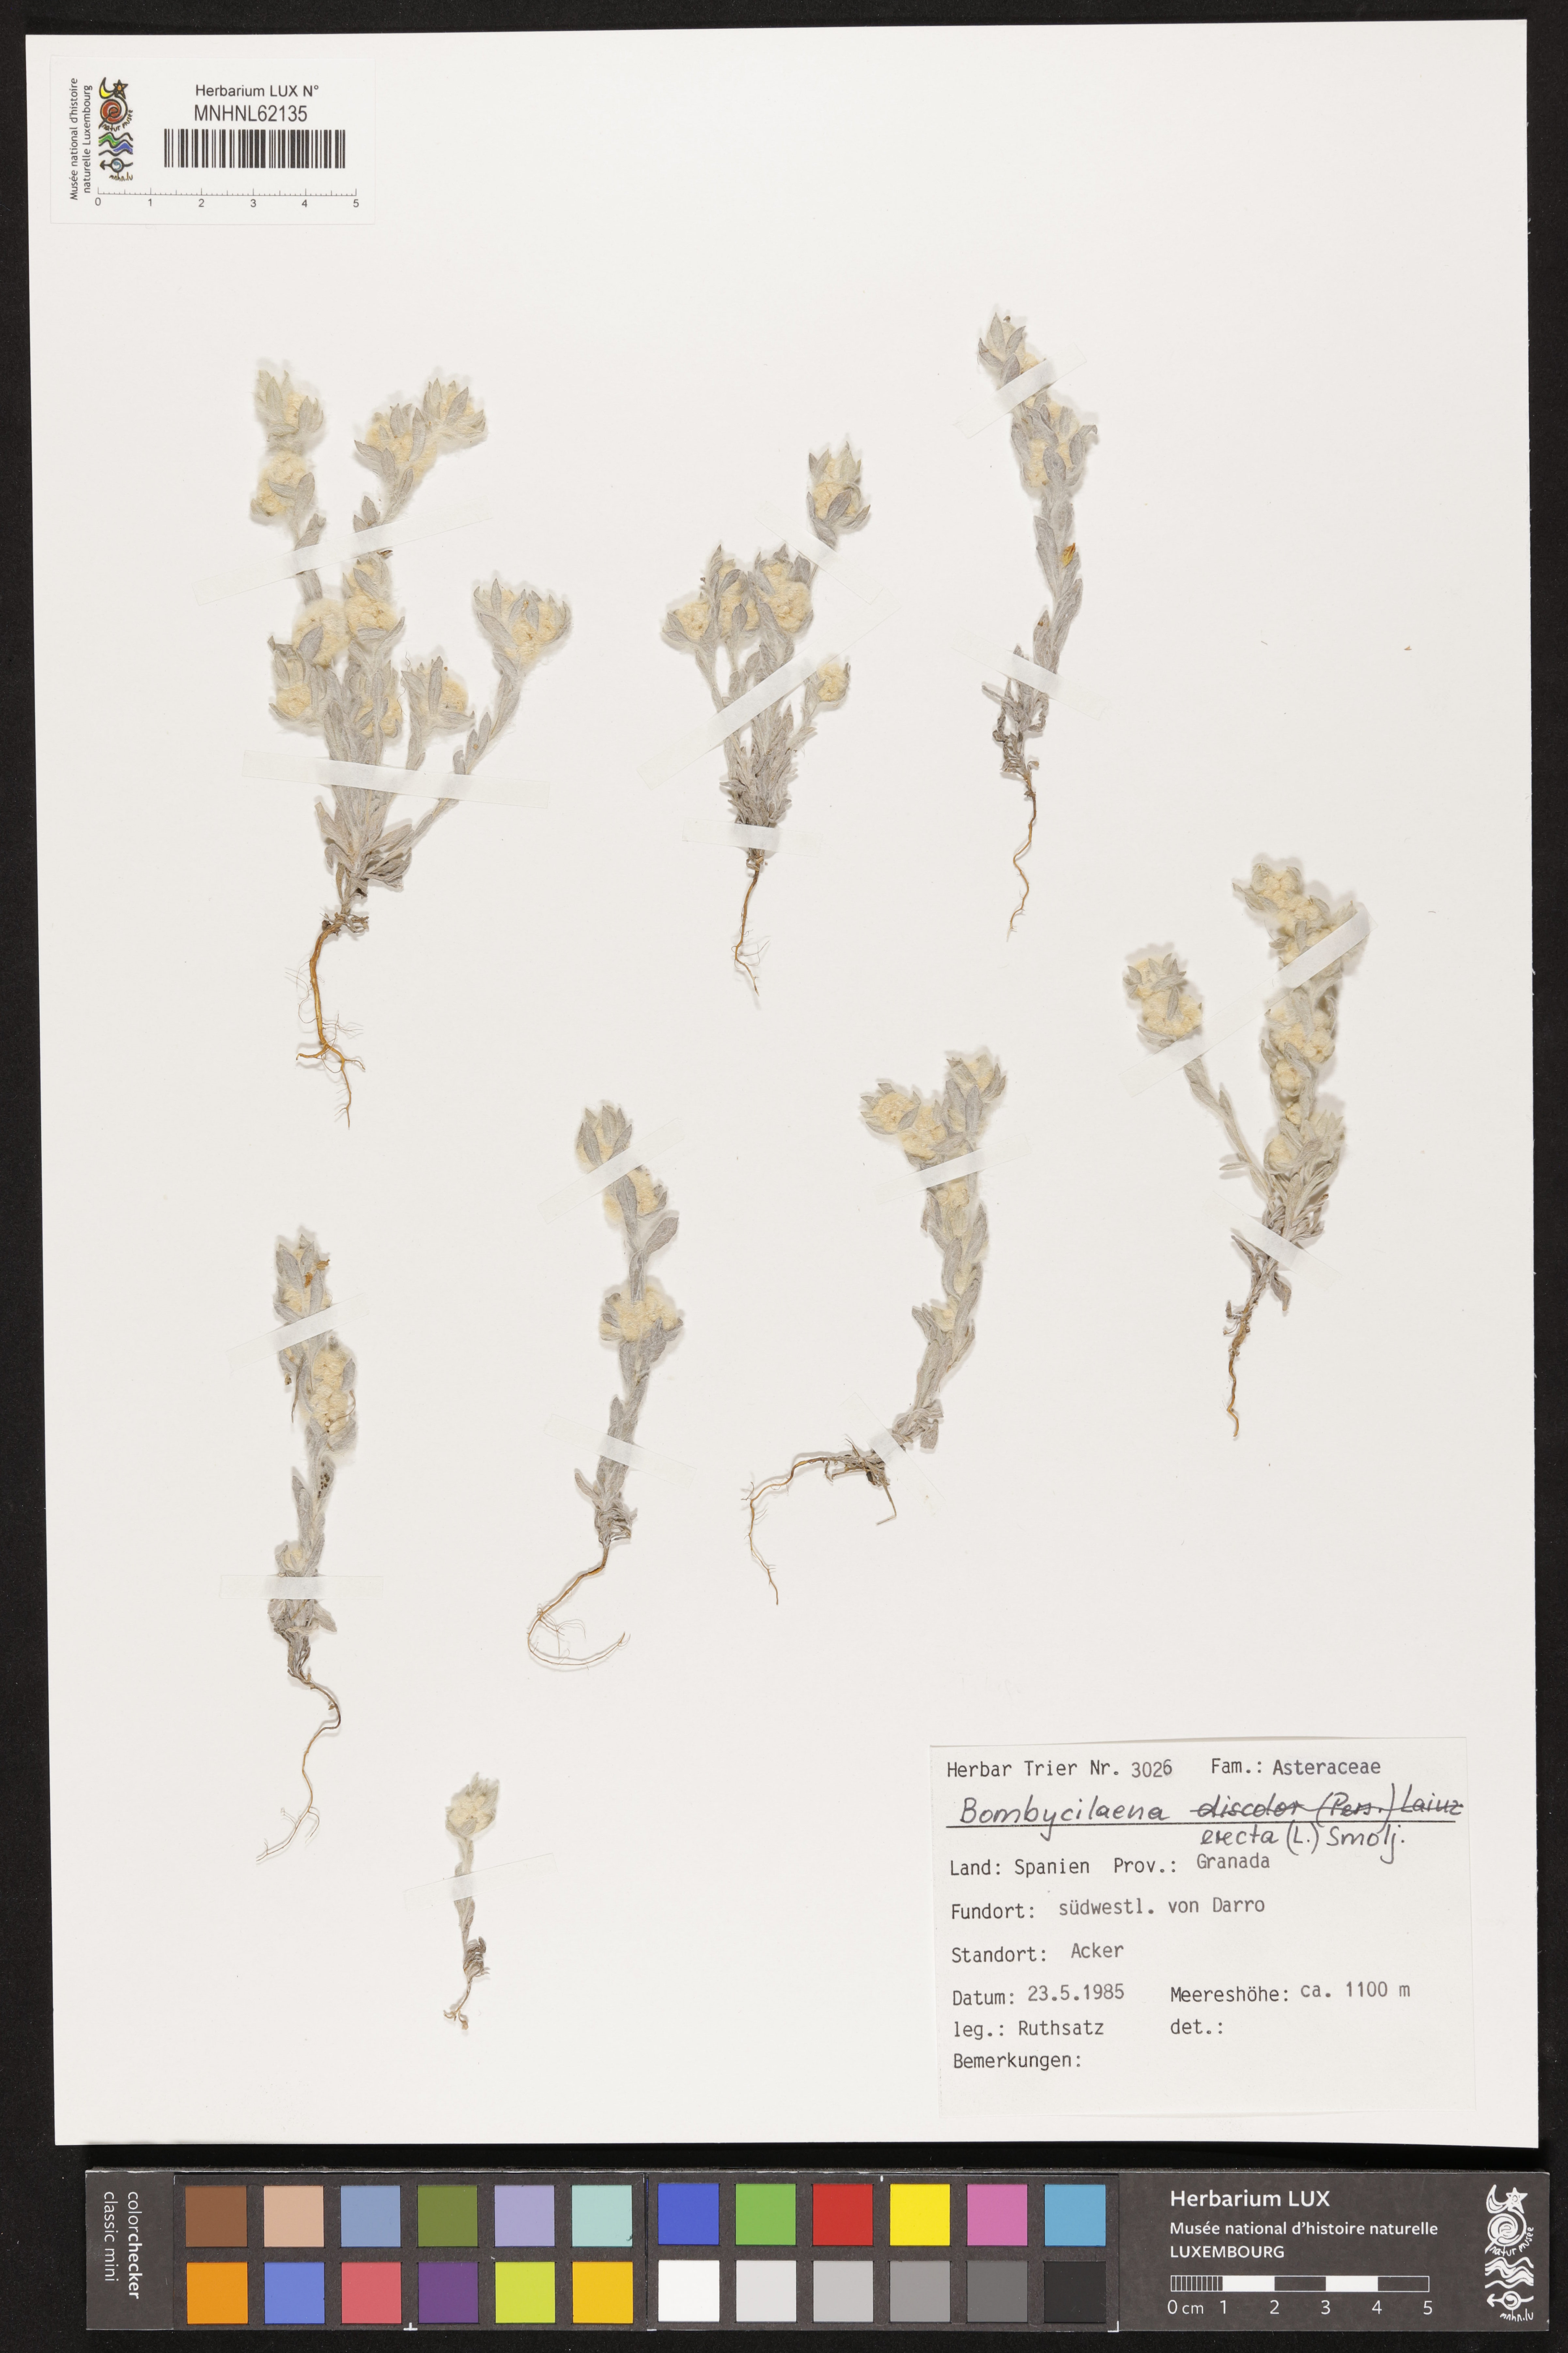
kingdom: Plantae
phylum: Tracheophyta
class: Magnoliopsida
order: Asterales
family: Asteraceae
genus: Bombycilaena
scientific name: Bombycilaena erecta
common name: Micropus
